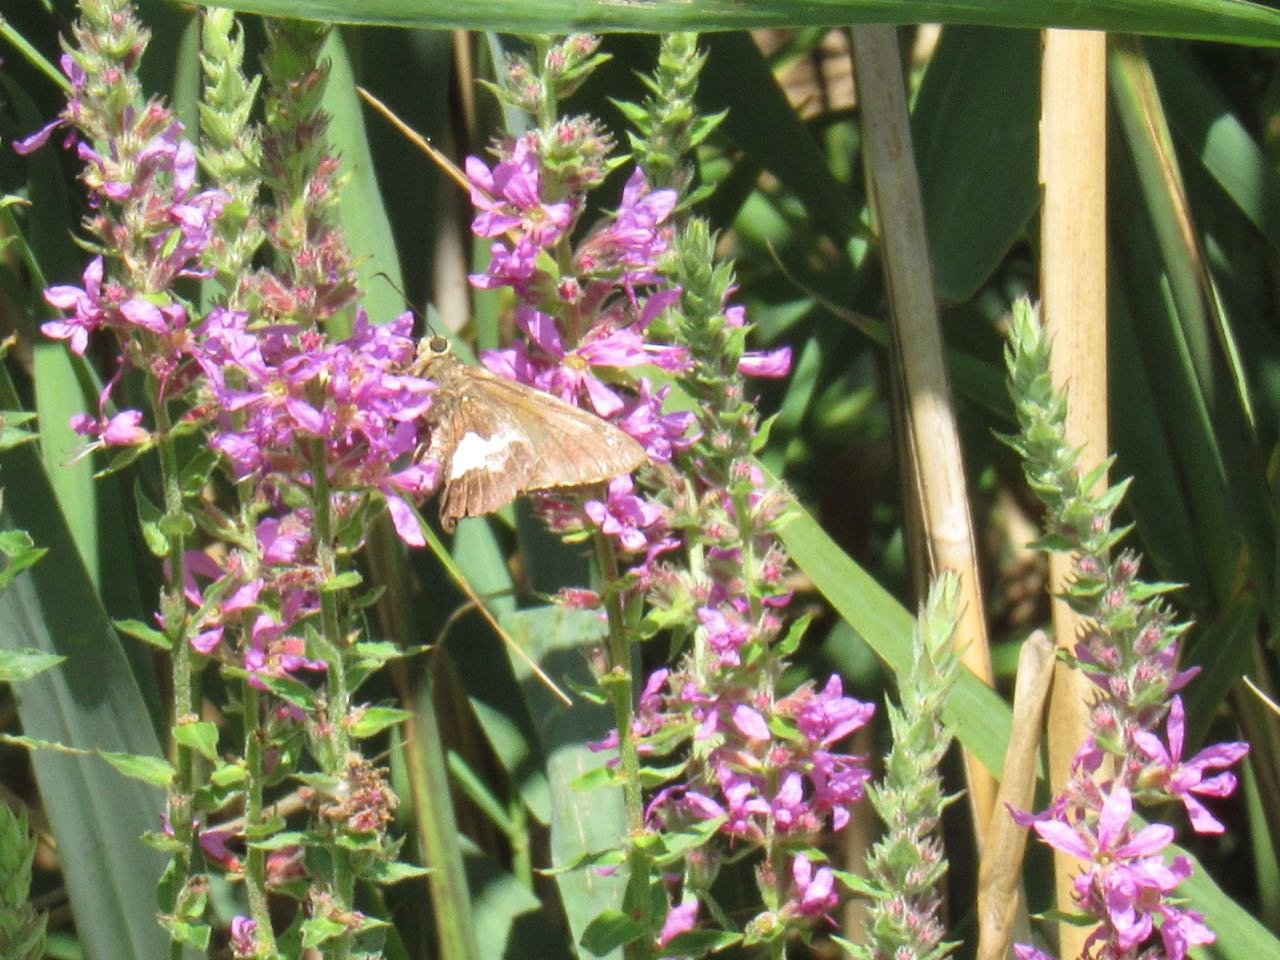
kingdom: Animalia
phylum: Arthropoda
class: Insecta
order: Lepidoptera
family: Hesperiidae
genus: Epargyreus
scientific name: Epargyreus clarus
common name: Silver-spotted Skipper
